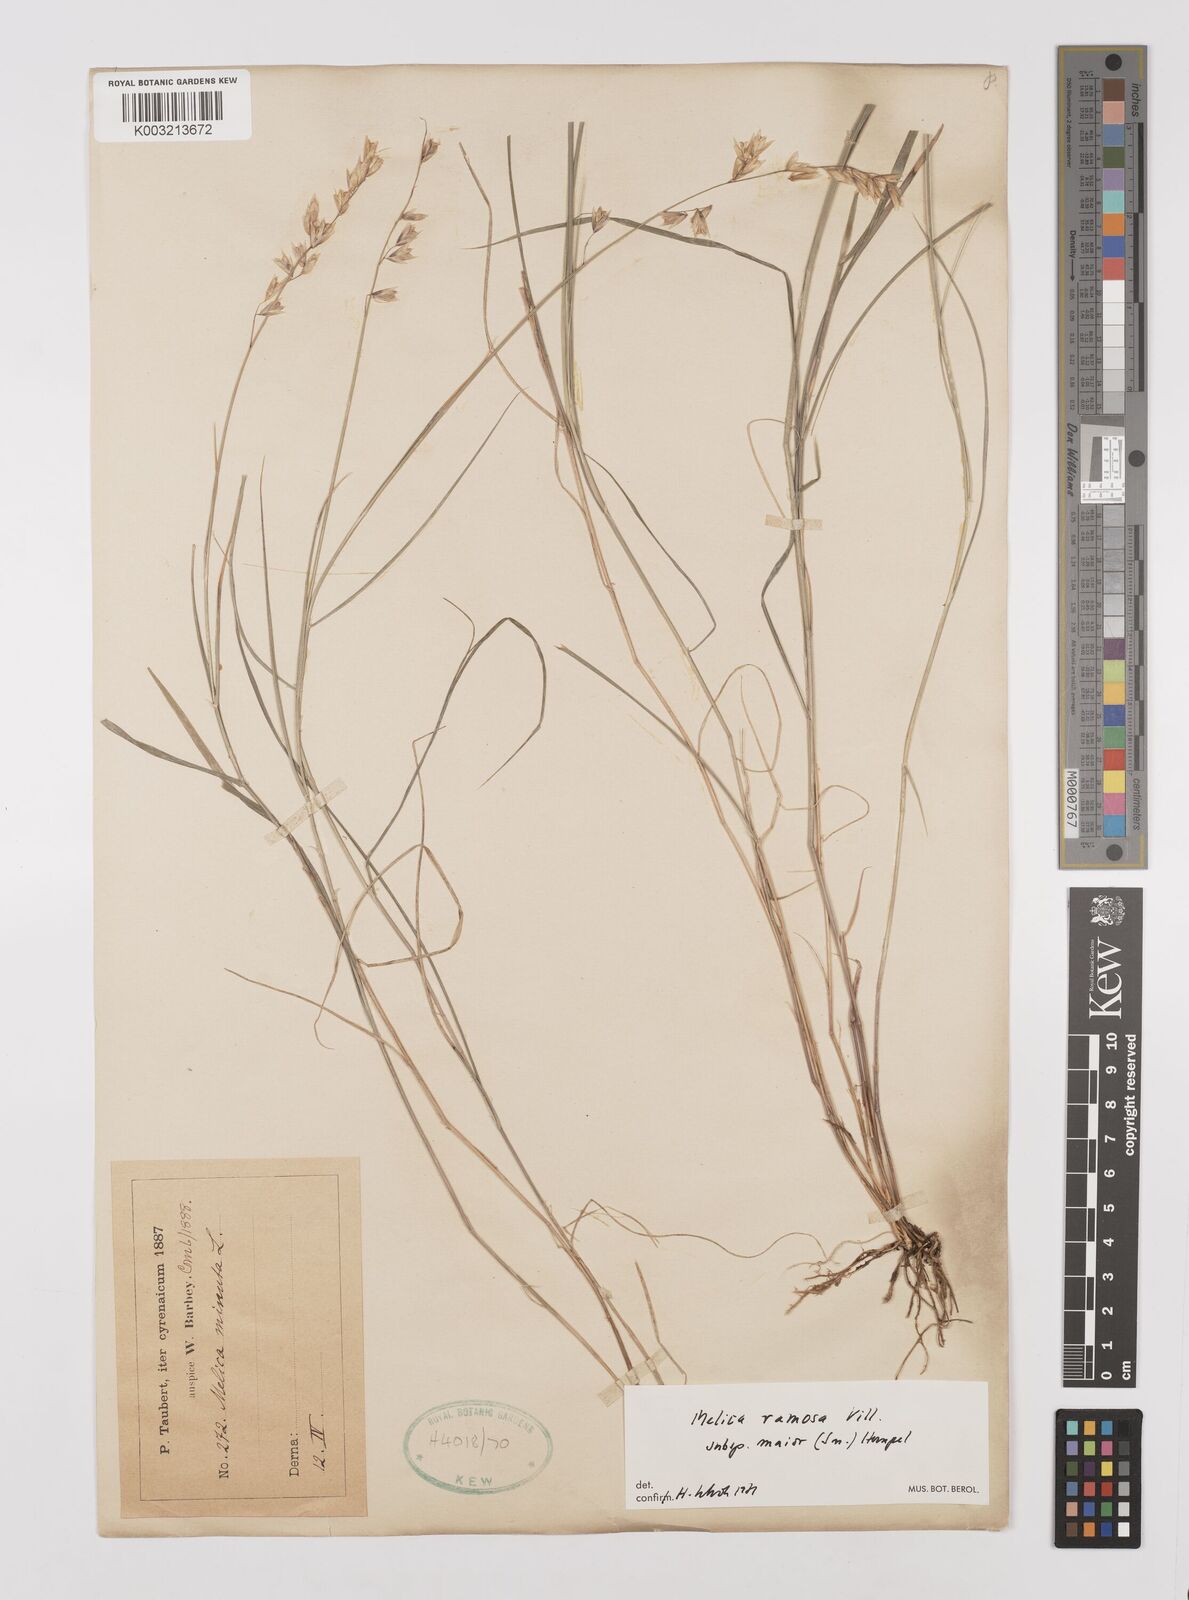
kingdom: Plantae
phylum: Tracheophyta
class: Liliopsida
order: Poales
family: Poaceae
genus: Melica
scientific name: Melica minuta
